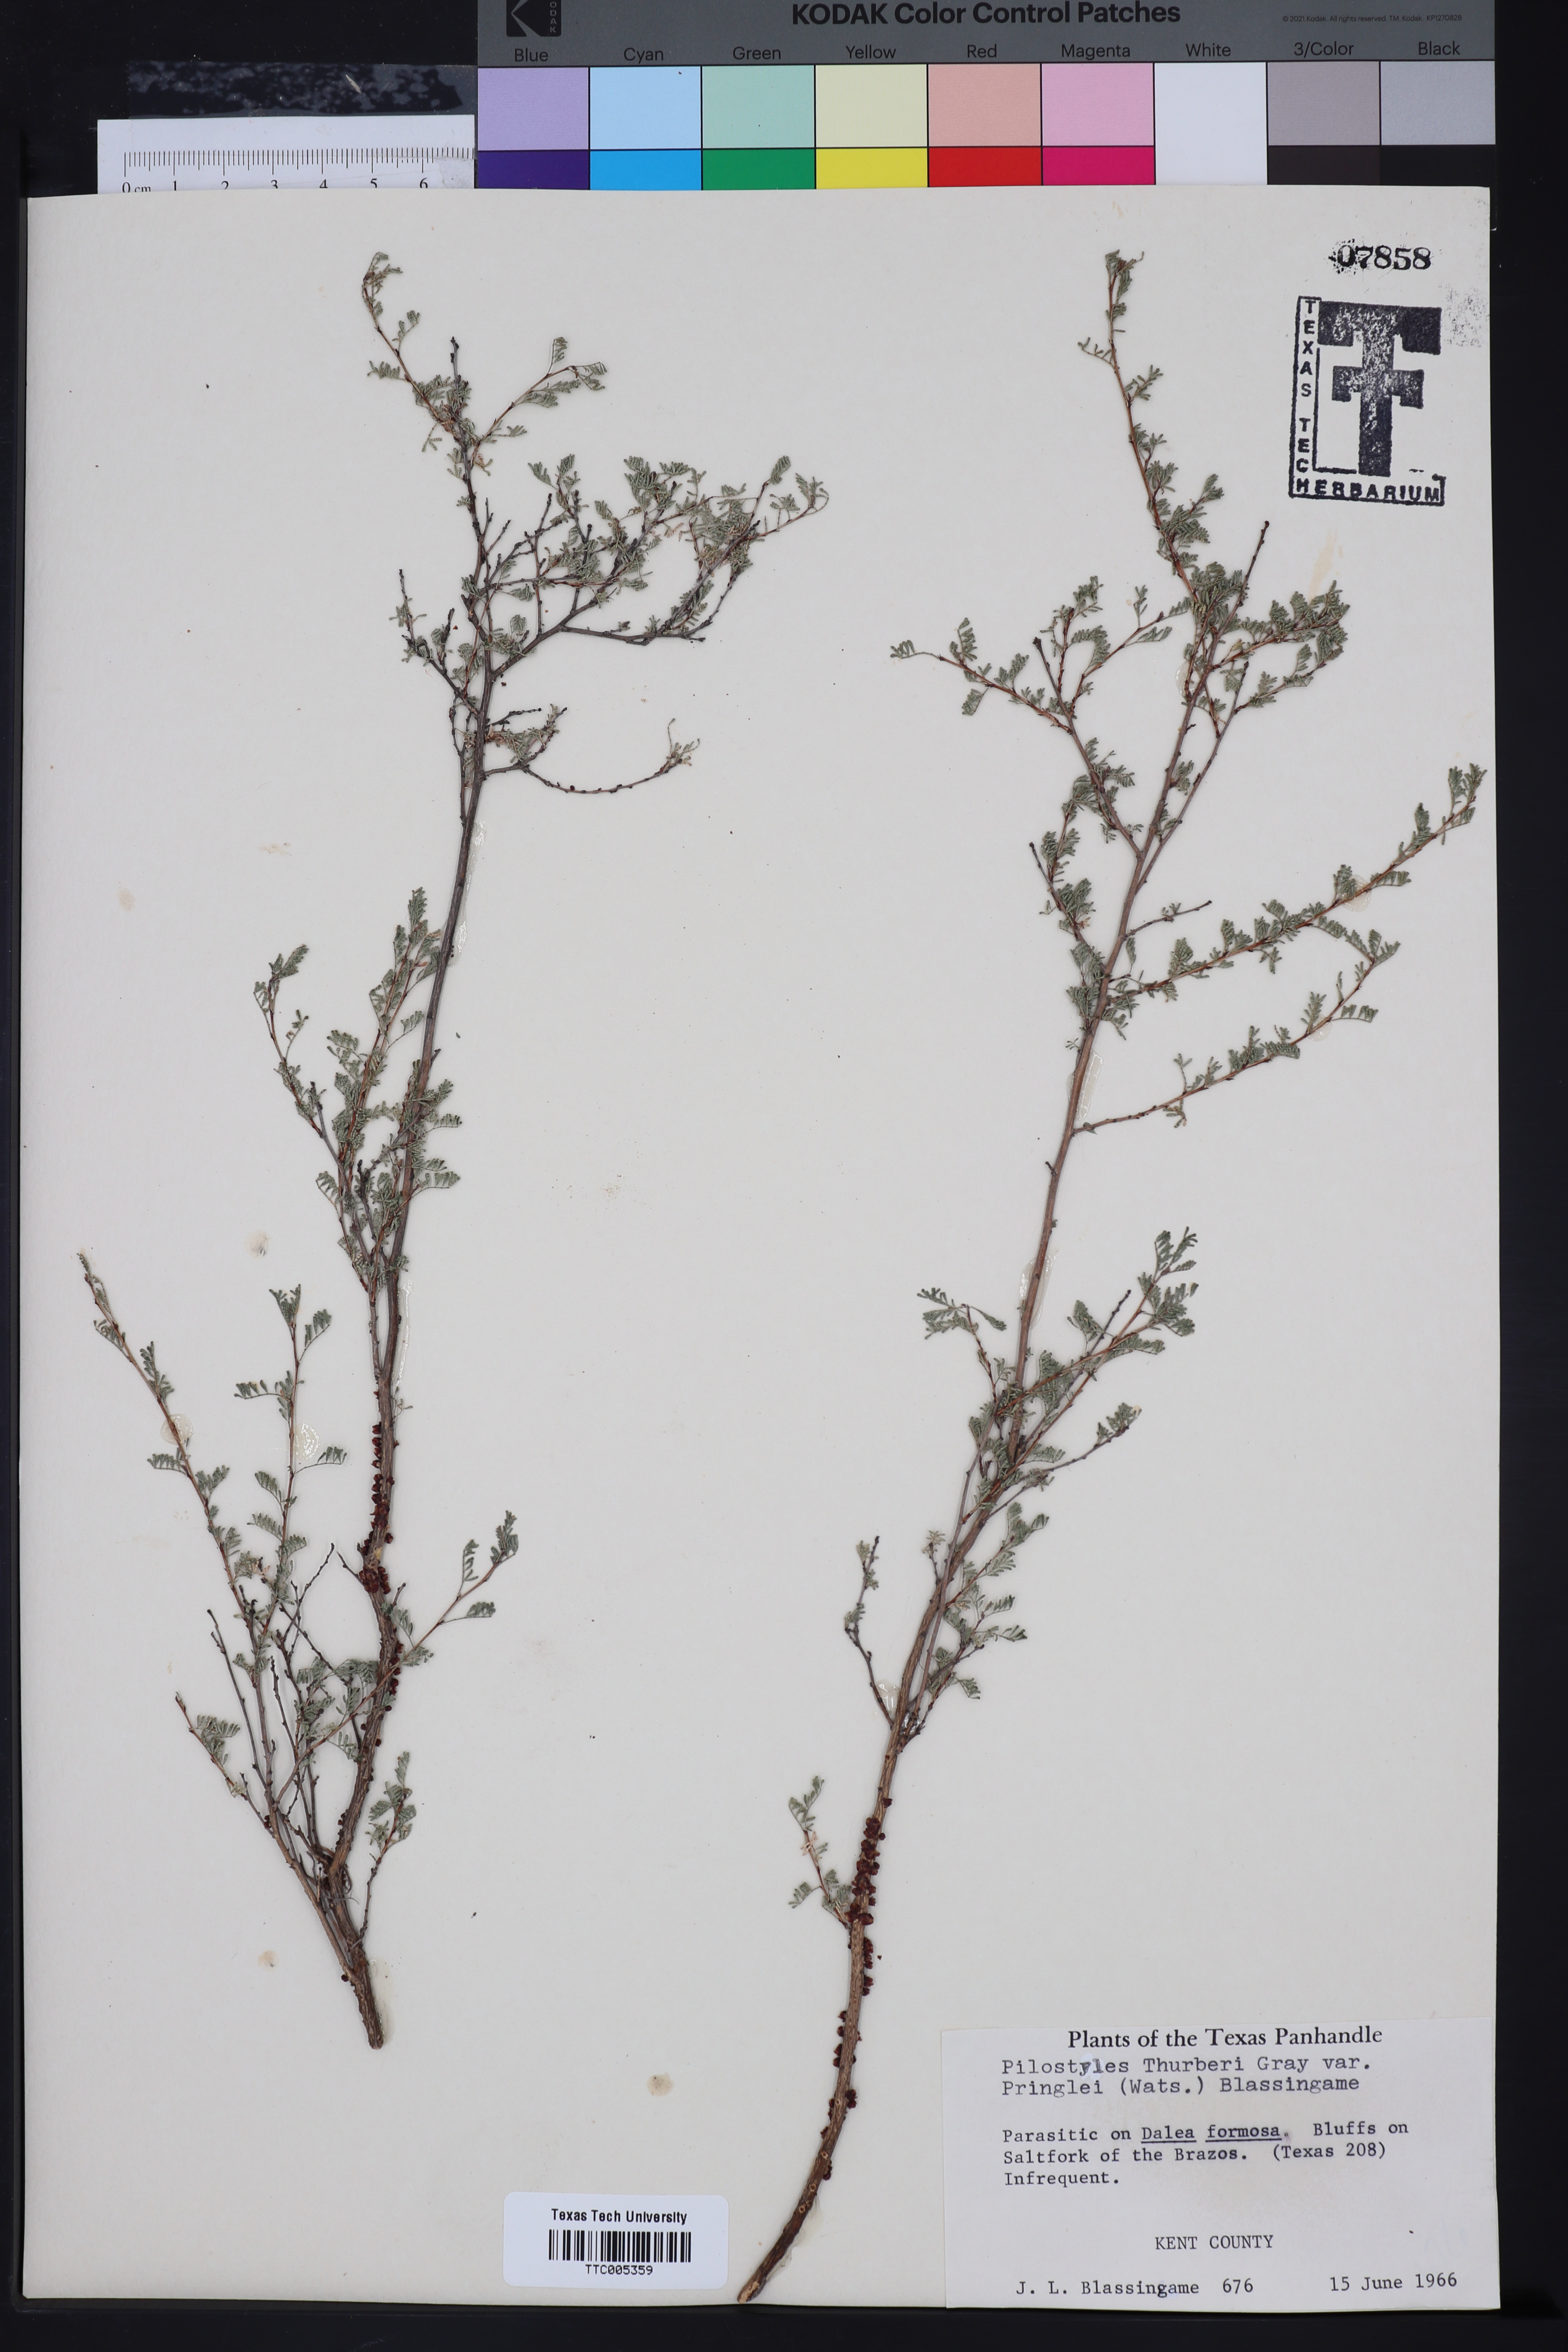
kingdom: Plantae
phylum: Tracheophyta
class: Magnoliopsida
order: Cucurbitales
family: Apodanthaceae
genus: Pilostyles
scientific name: Pilostyles thurberi
